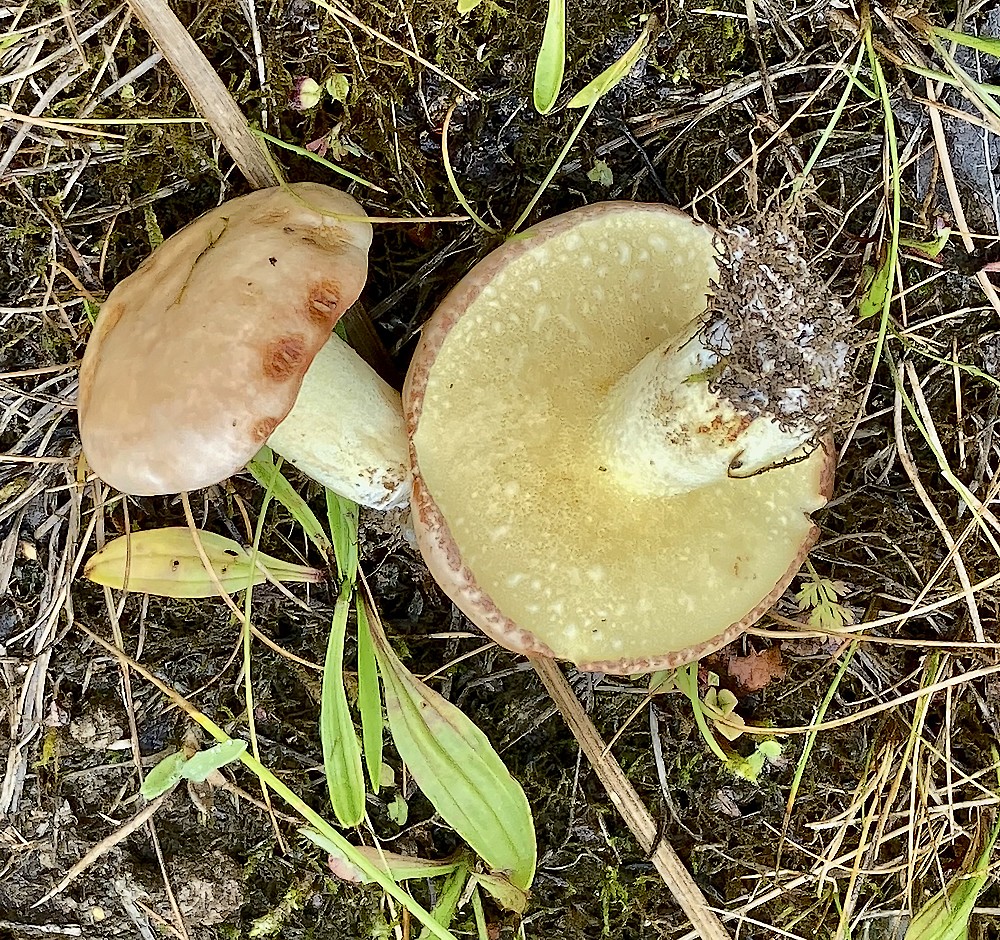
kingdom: Fungi
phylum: Basidiomycota
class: Agaricomycetes
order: Boletales
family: Suillaceae
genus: Suillus
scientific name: Suillus granulatus
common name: kornet slimrørhat
